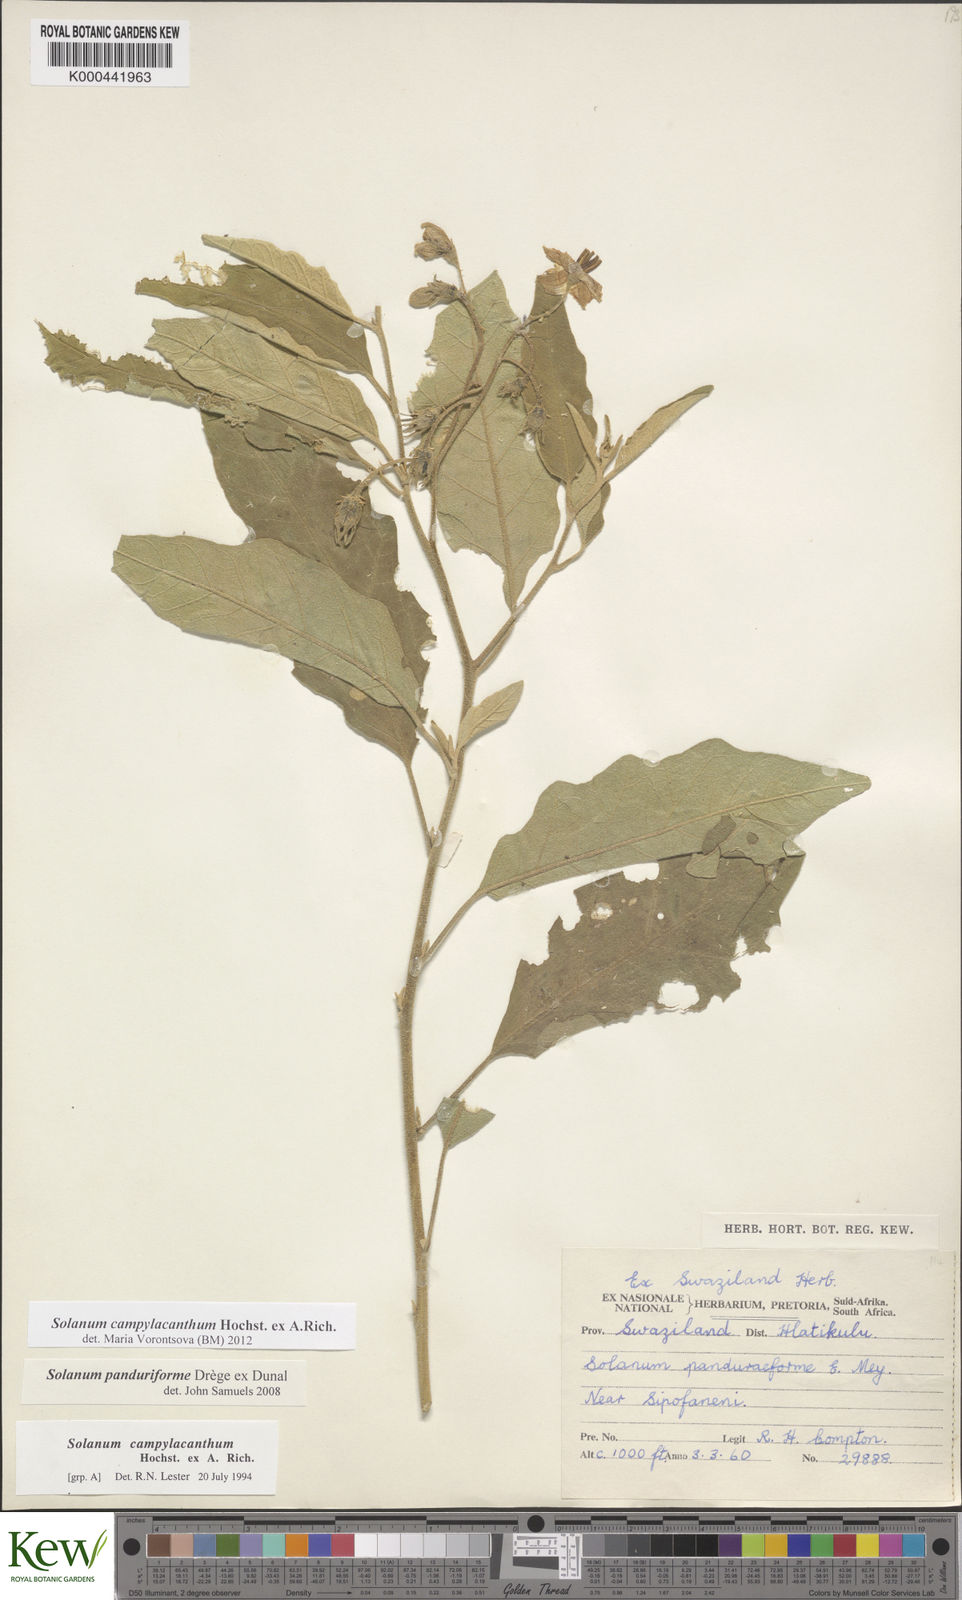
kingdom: Plantae
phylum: Tracheophyta
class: Magnoliopsida
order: Solanales
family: Solanaceae
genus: Solanum
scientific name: Solanum campylacanthum
